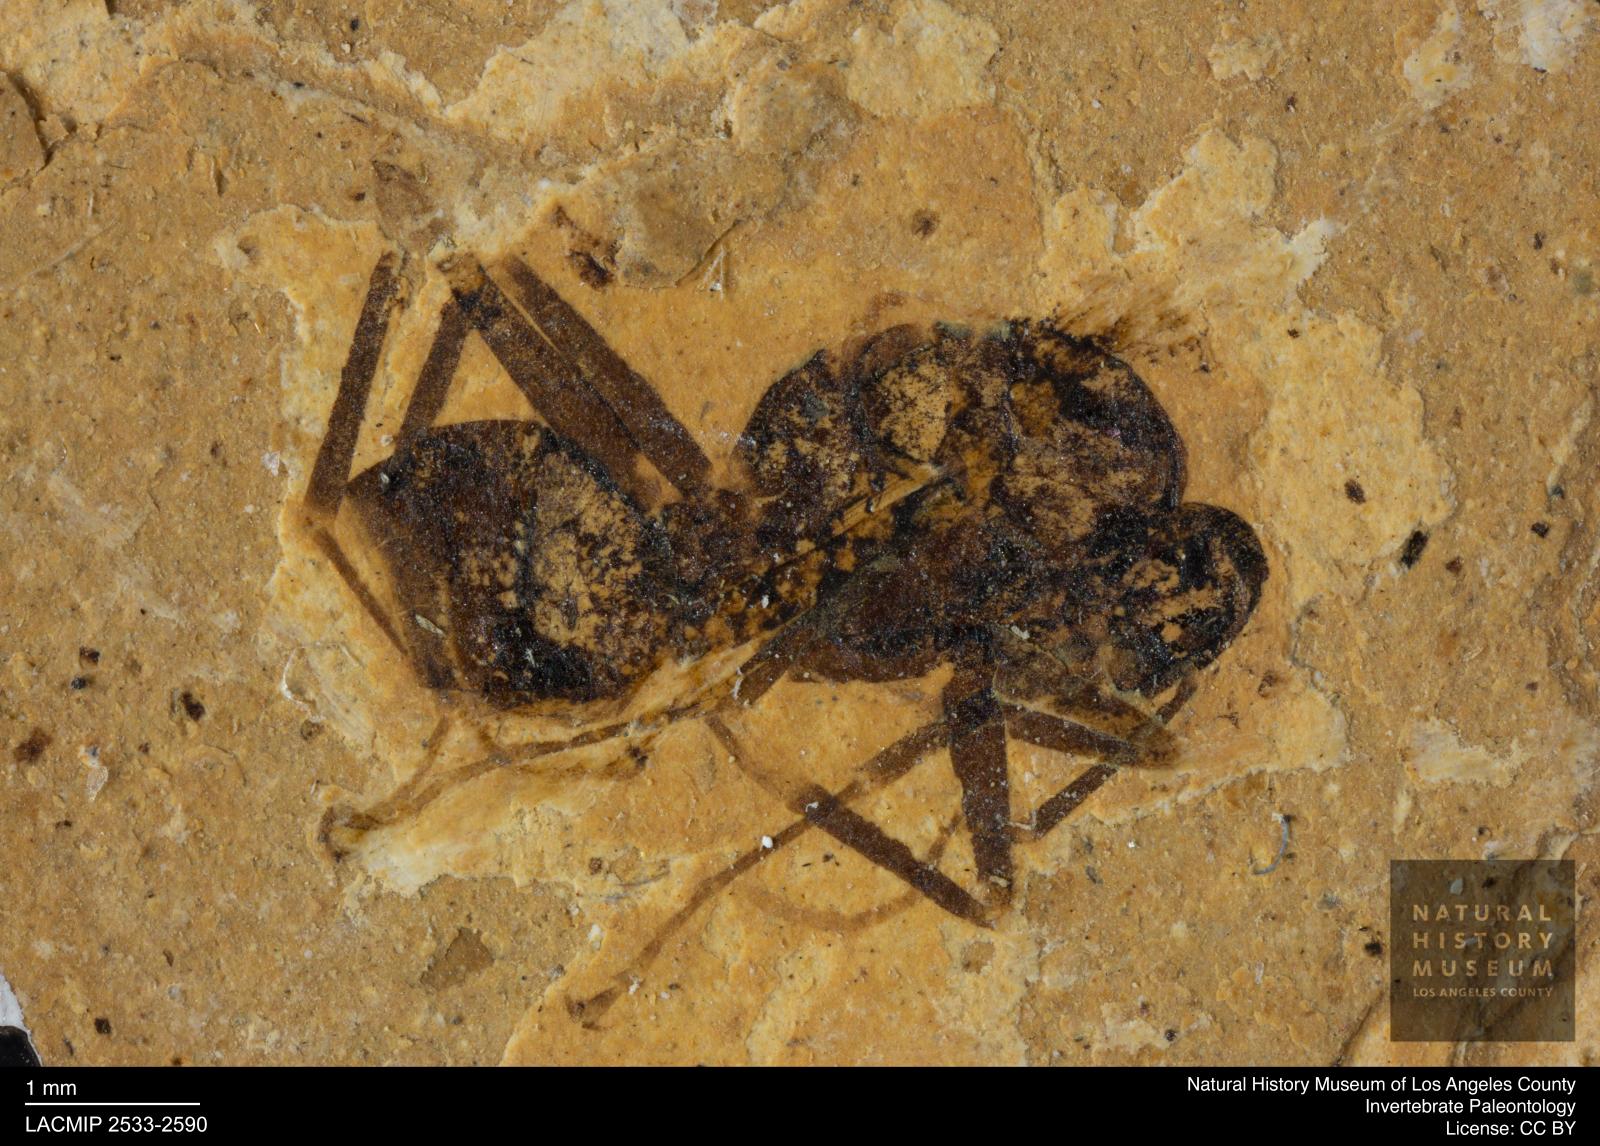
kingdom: Animalia
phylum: Arthropoda
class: Insecta
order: Hymenoptera
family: Formicidae
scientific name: Formicidae
